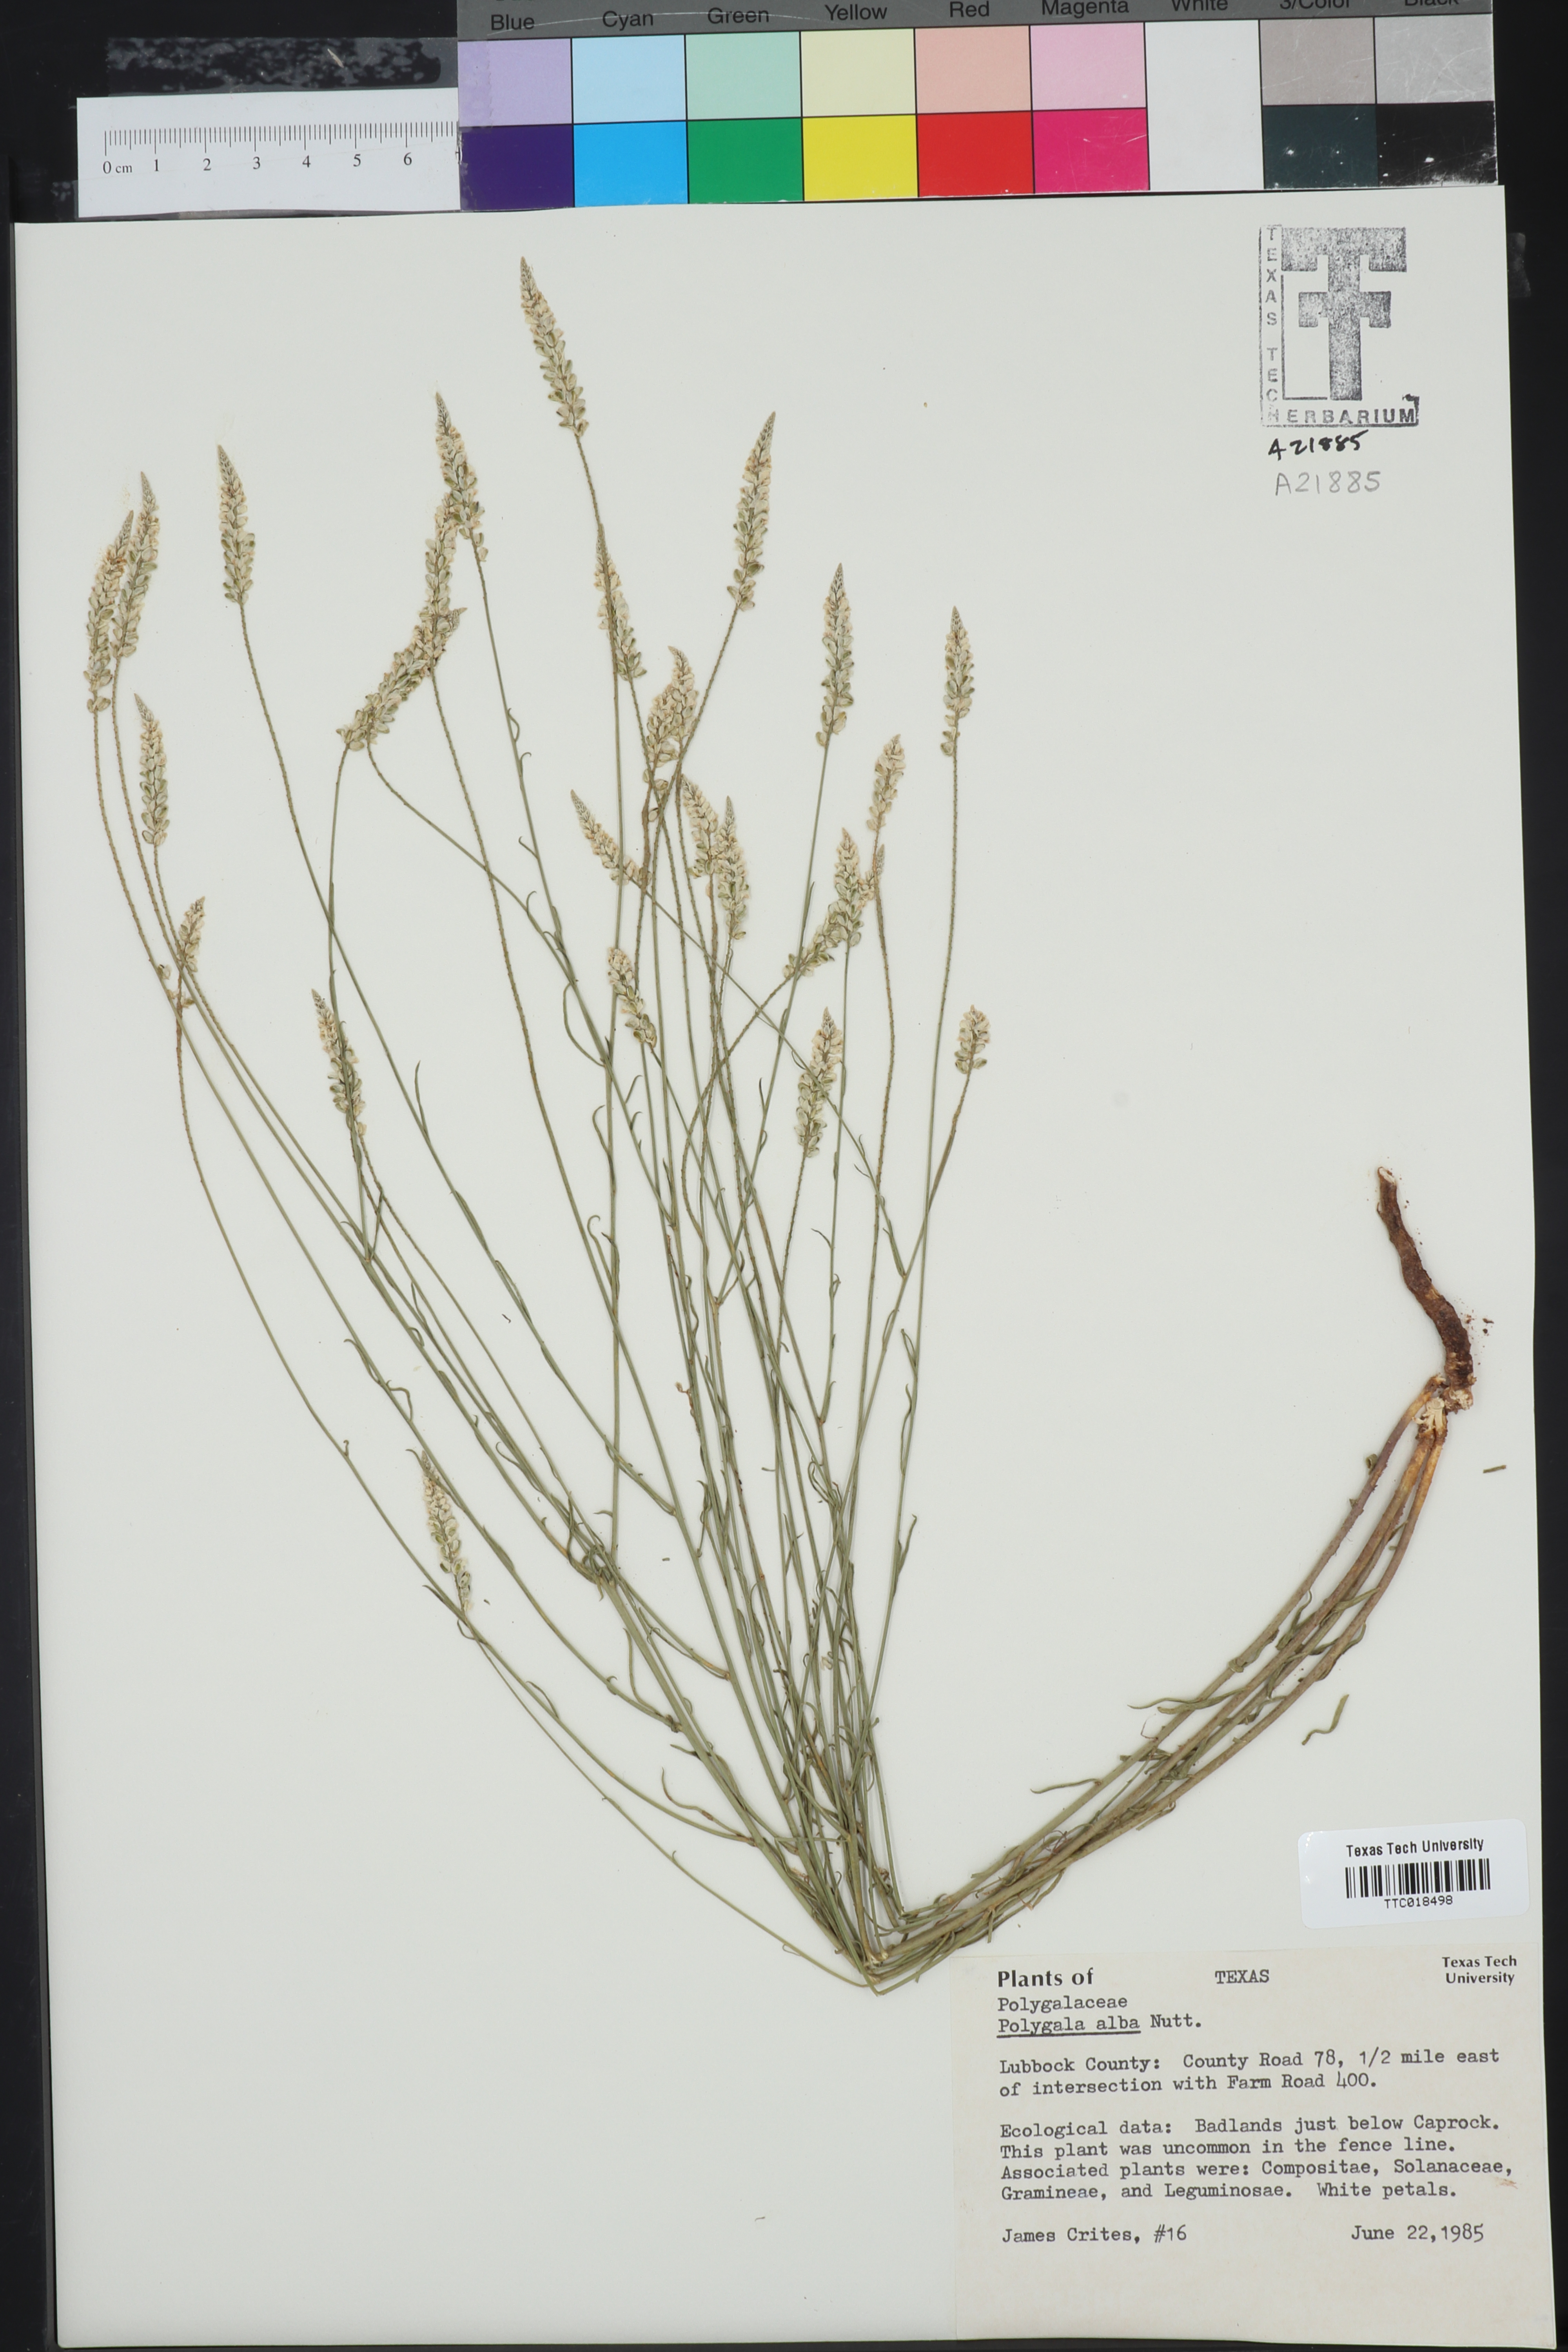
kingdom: Plantae
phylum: Tracheophyta
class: Magnoliopsida
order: Fabales
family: Polygalaceae
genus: Polygala
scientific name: Polygala alba
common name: White milkwort
